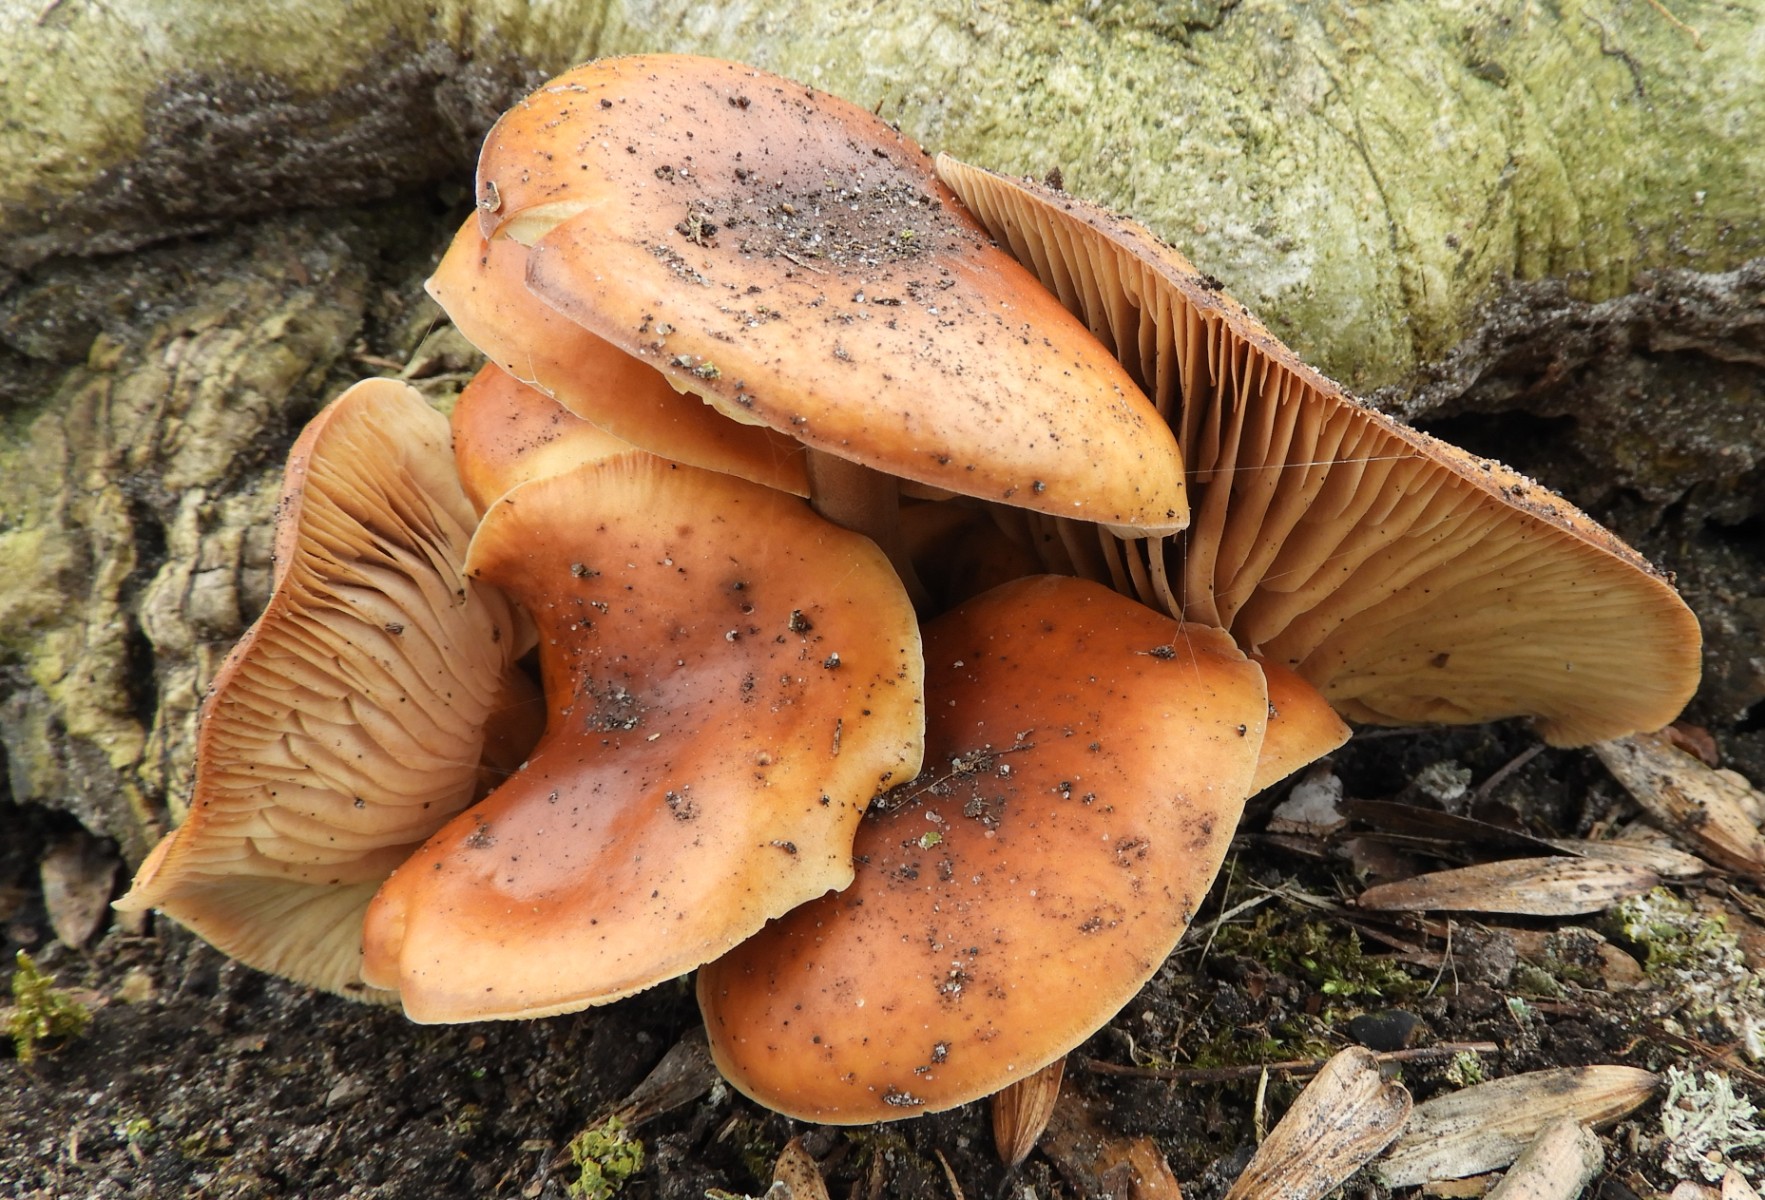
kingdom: Fungi
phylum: Basidiomycota
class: Agaricomycetes
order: Agaricales
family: Physalacriaceae
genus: Flammulina
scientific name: Flammulina velutipes
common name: gul fløjlsfod
